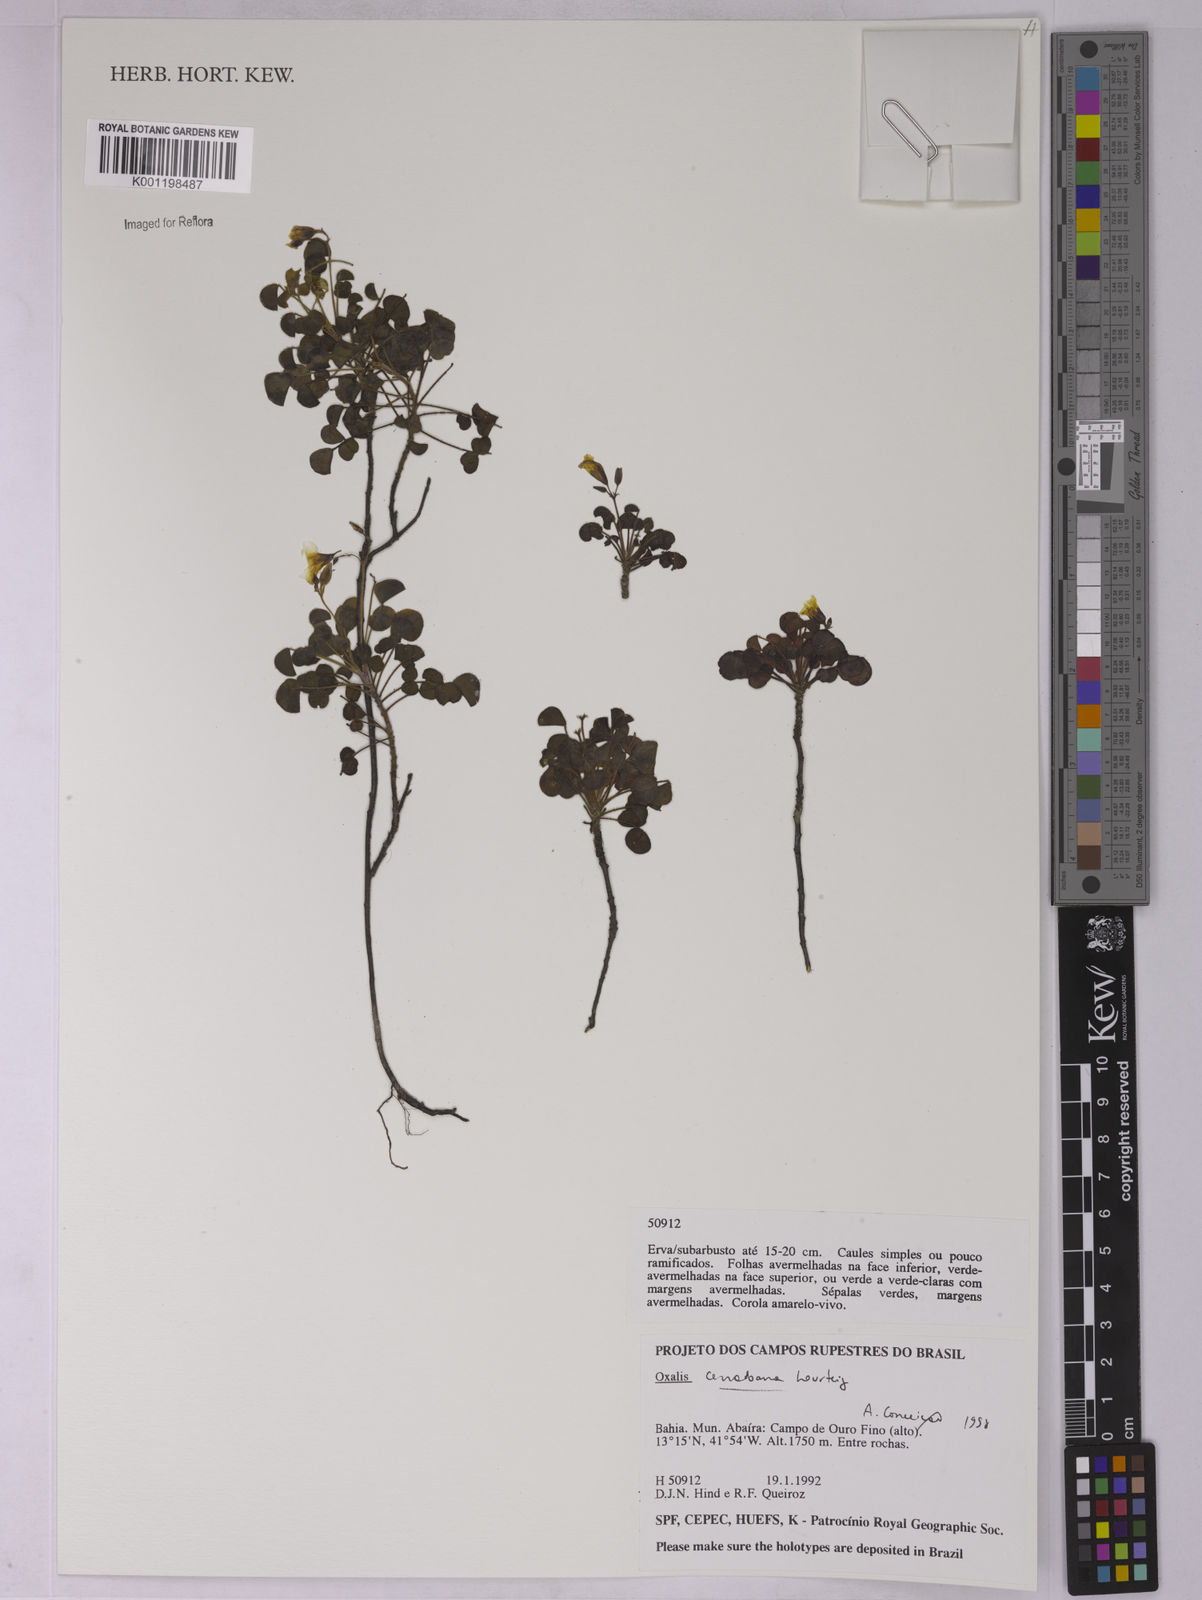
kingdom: Plantae
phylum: Tracheophyta
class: Magnoliopsida
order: Oxalidales
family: Oxalidaceae
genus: Oxalis
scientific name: Oxalis cerradoana
